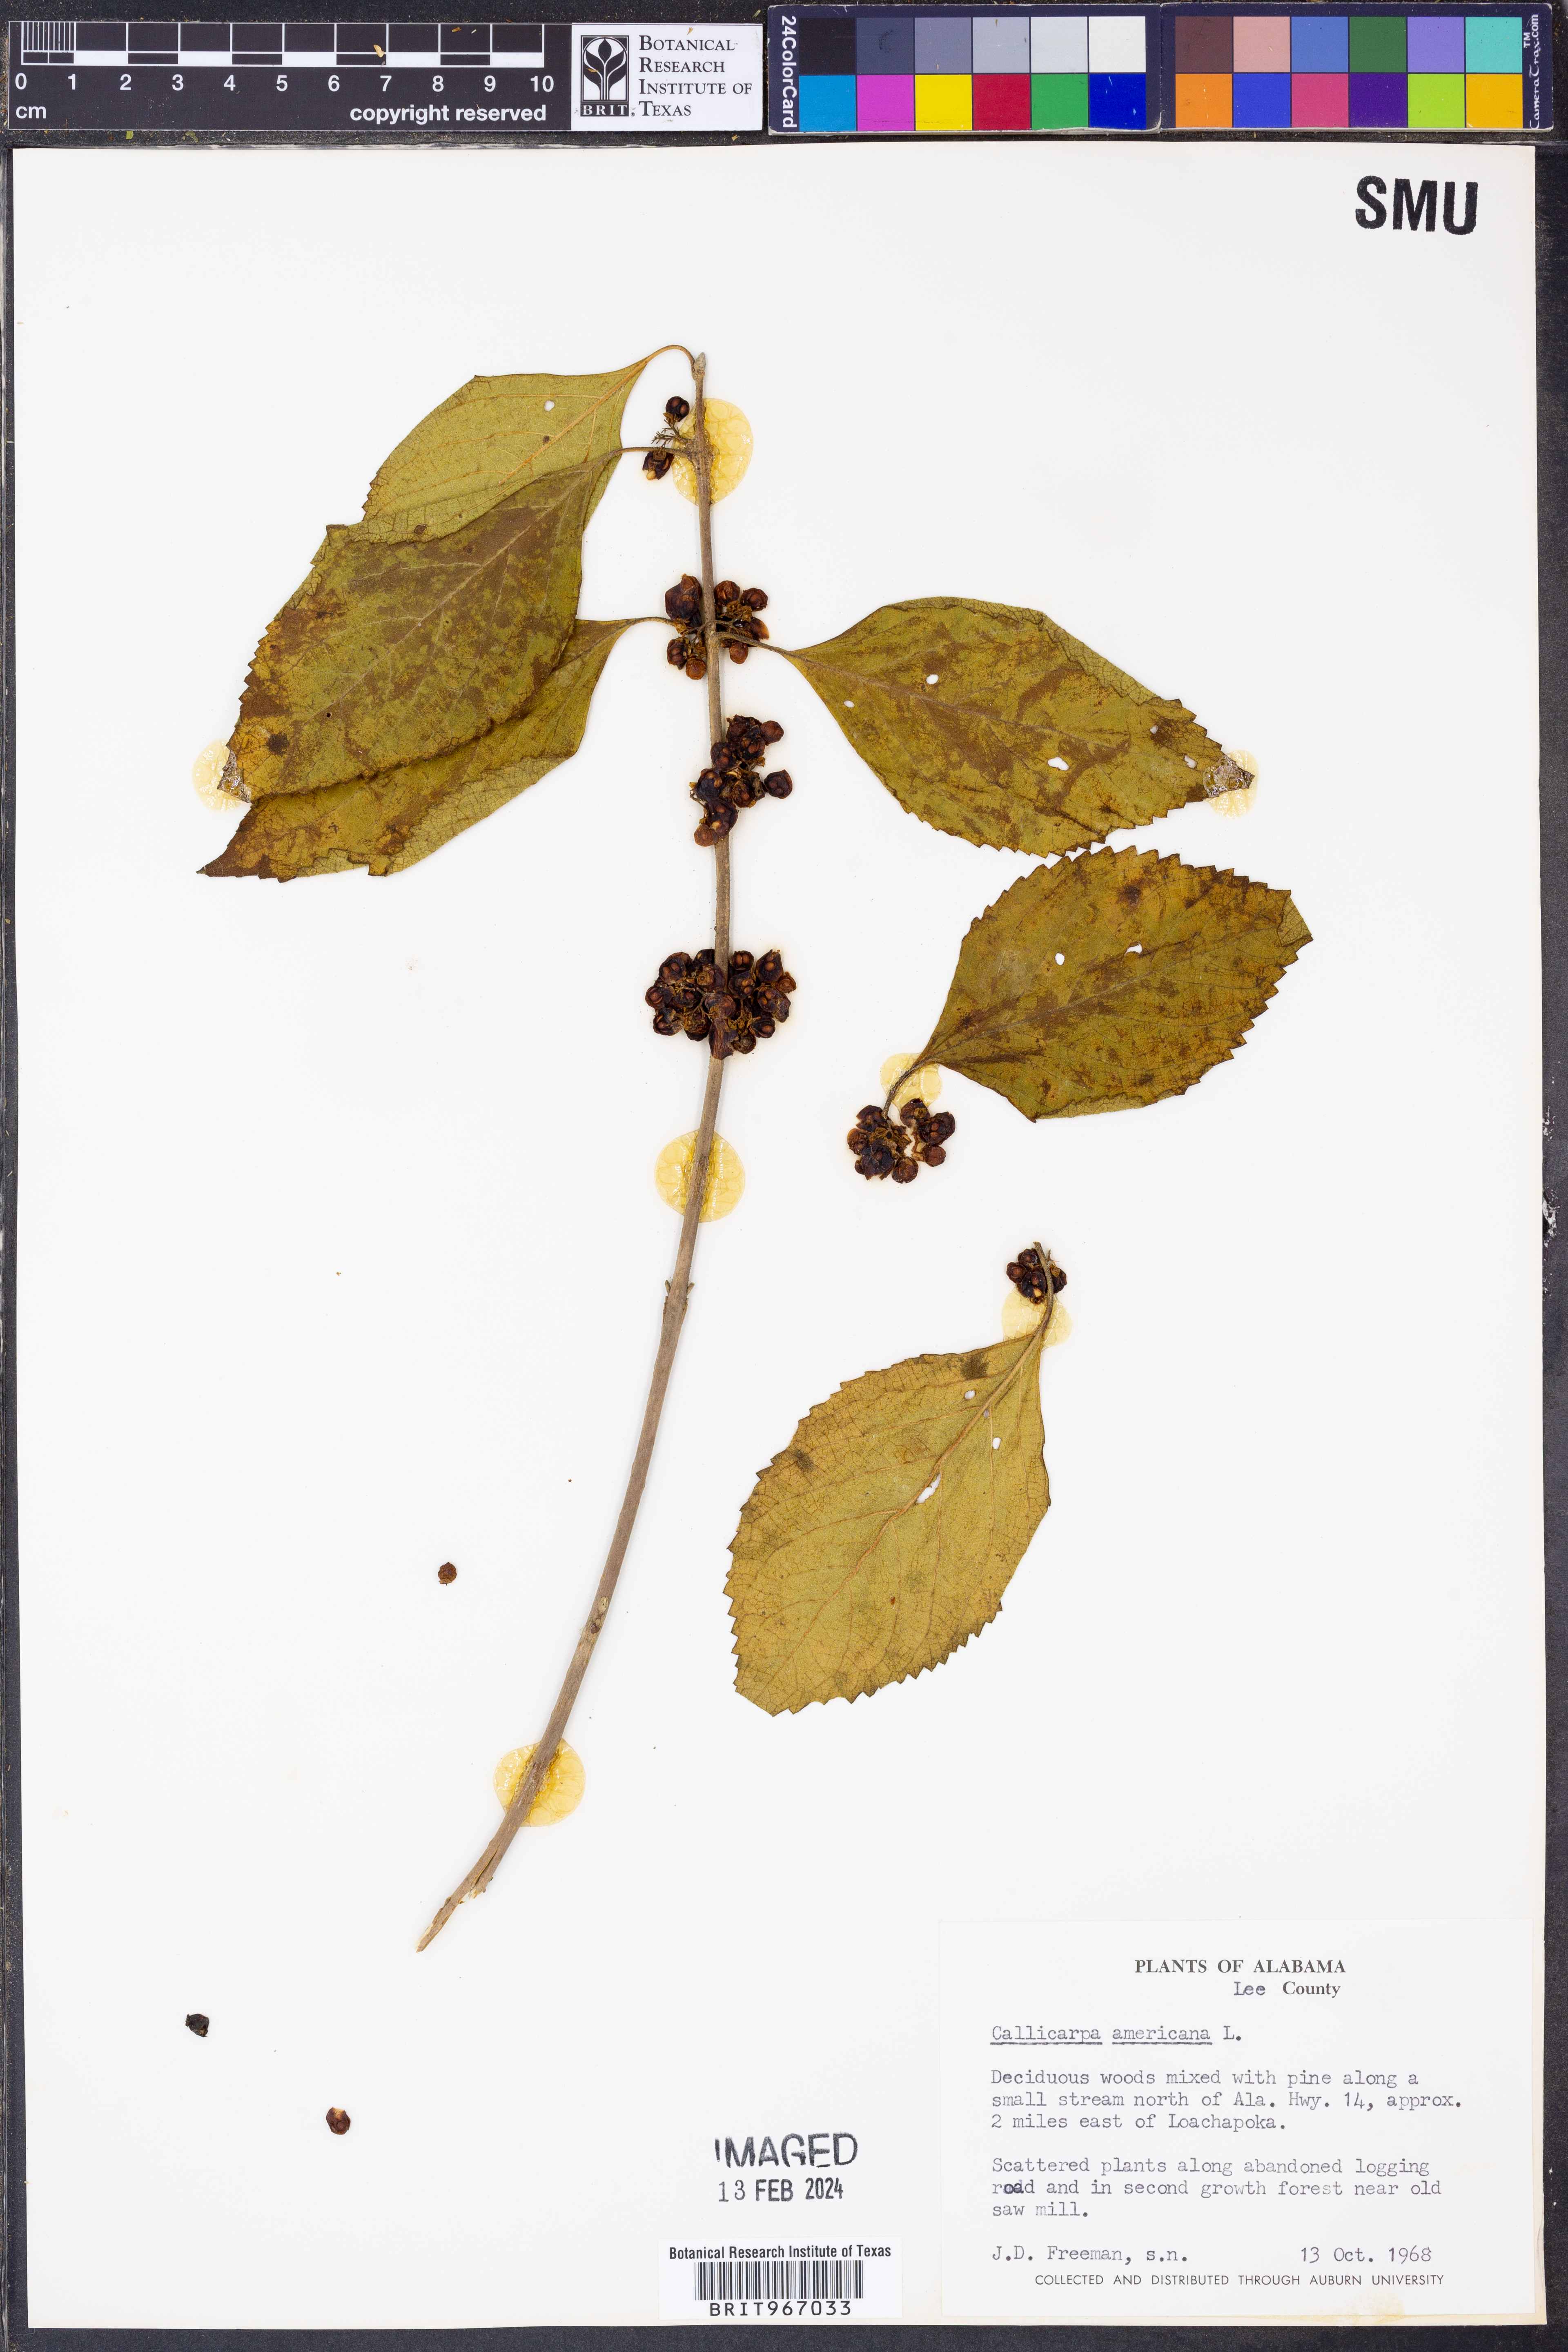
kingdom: Plantae
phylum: Tracheophyta
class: Magnoliopsida
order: Lamiales
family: Lamiaceae
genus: Callicarpa
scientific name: Callicarpa americana
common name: American beautyberry
